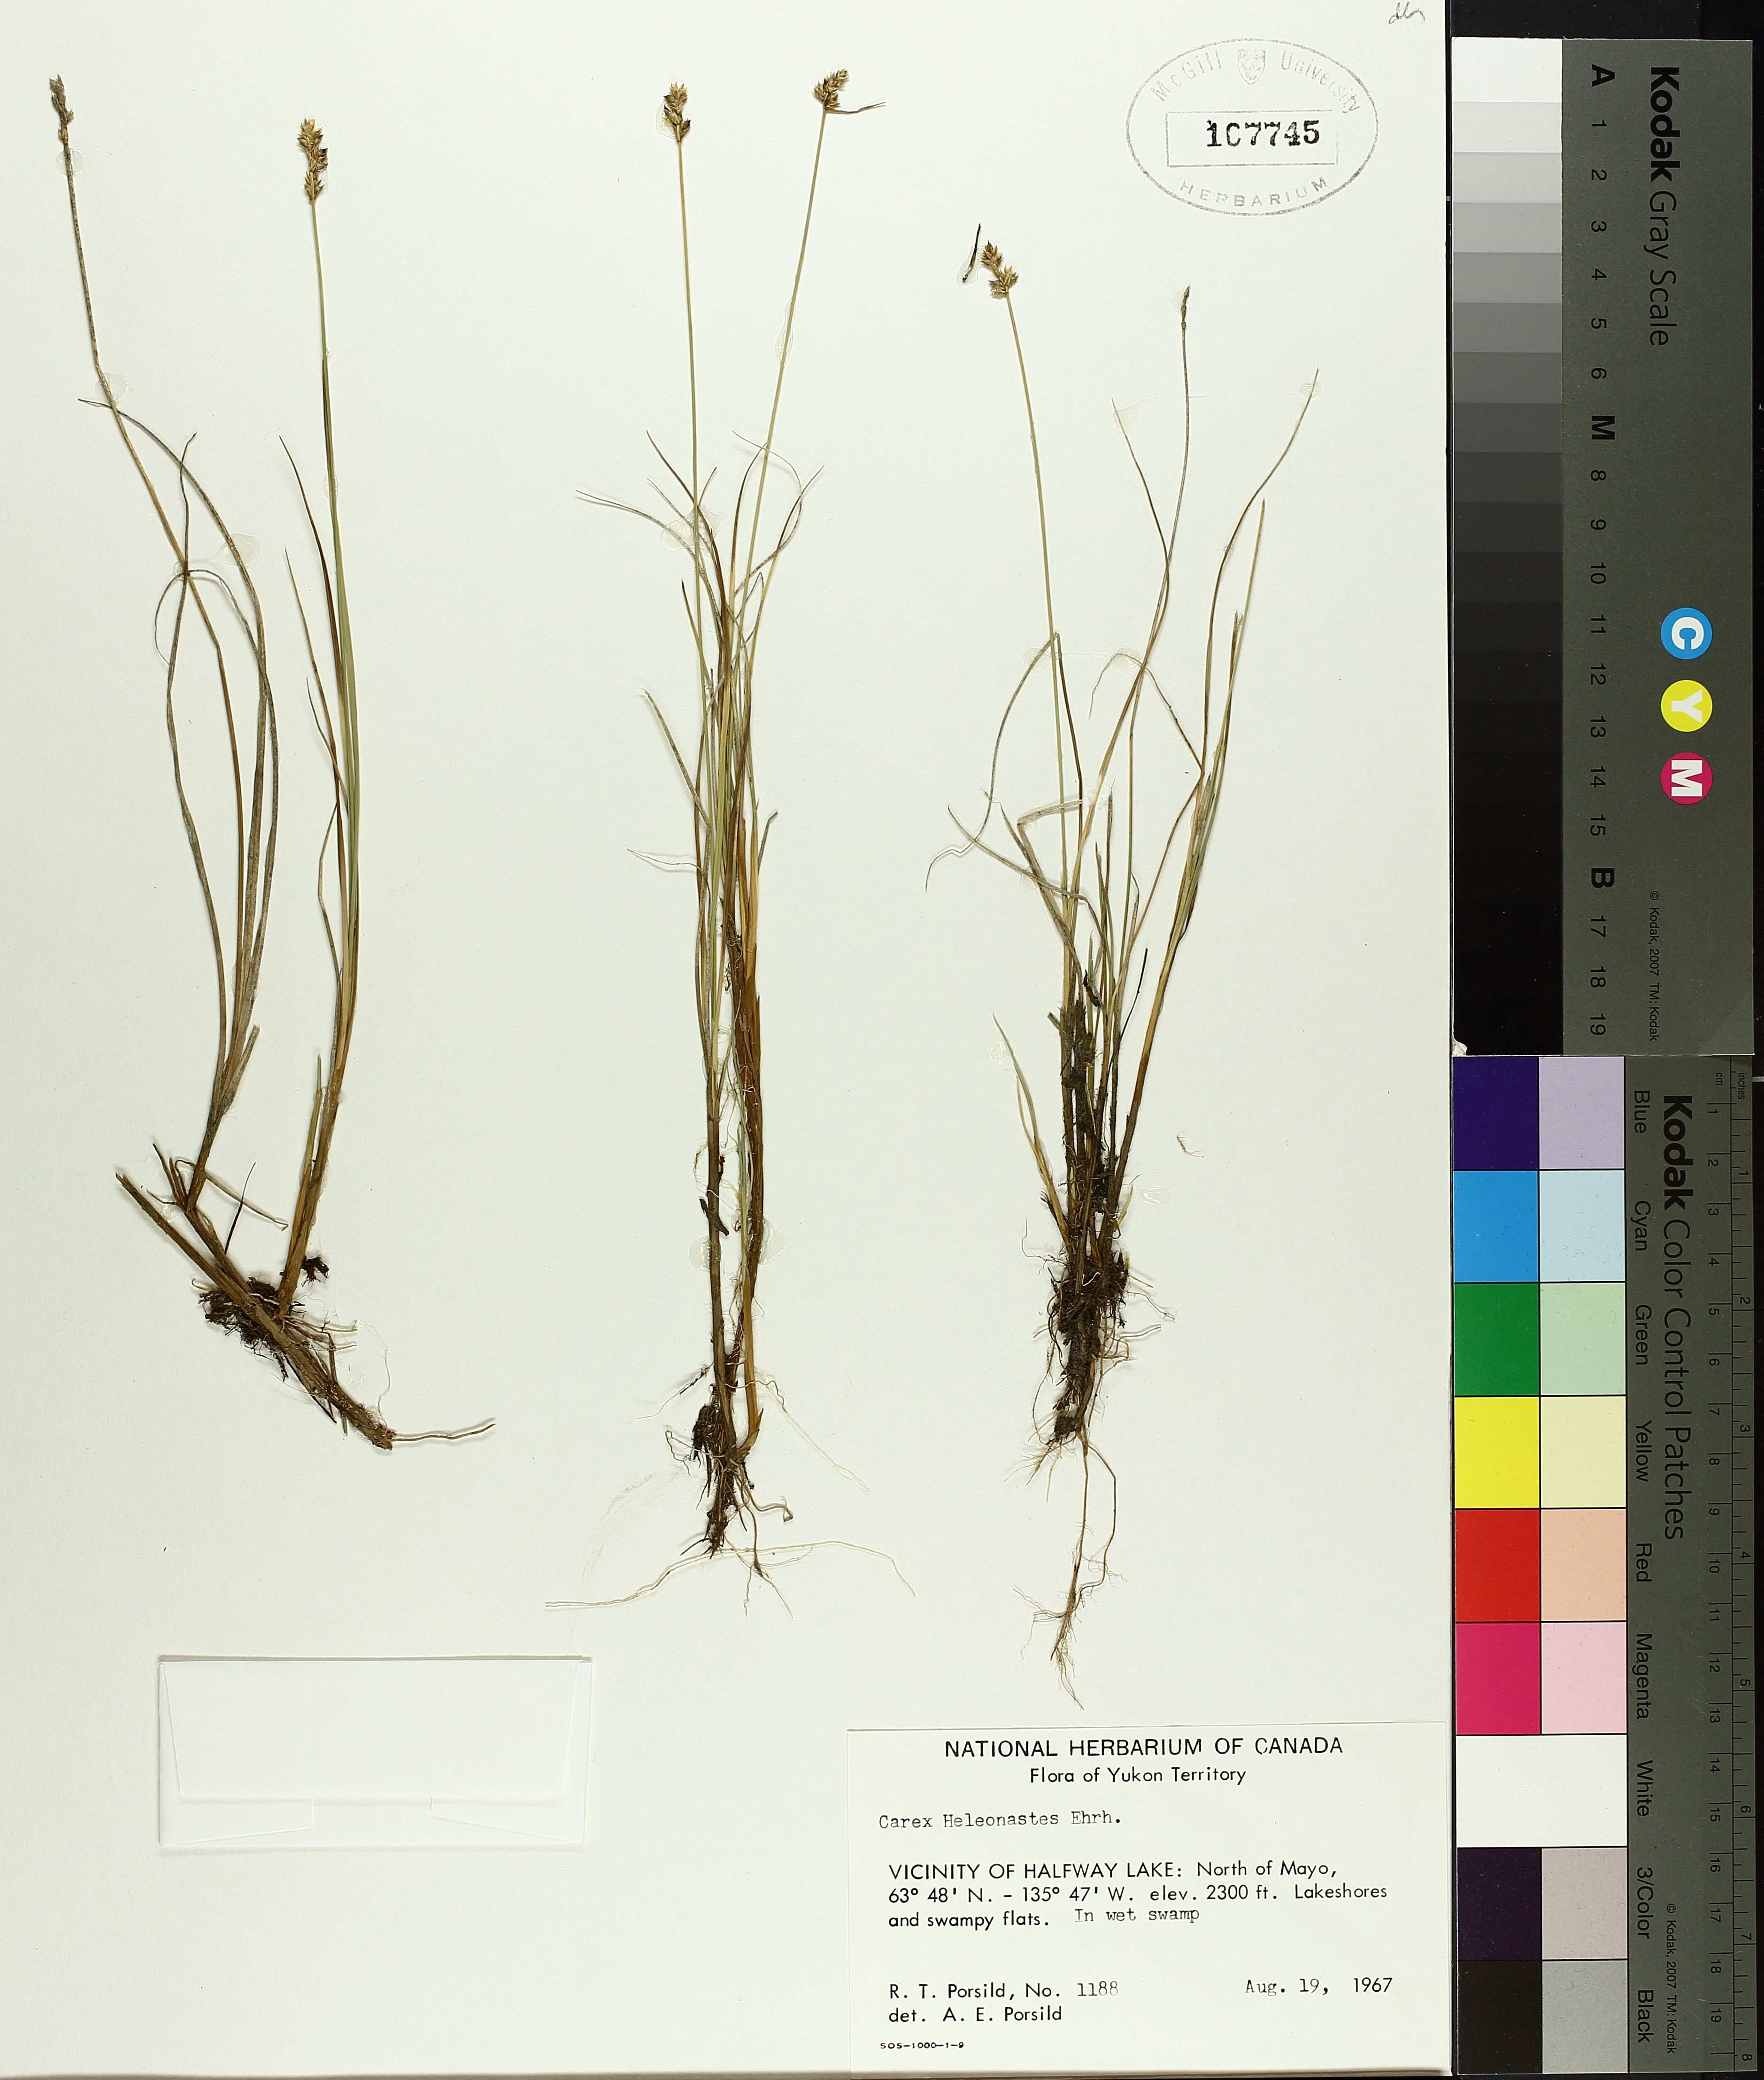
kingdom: Plantae
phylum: Tracheophyta
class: Liliopsida
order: Poales
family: Cyperaceae
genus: Carex
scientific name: Carex heleonastes
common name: Hudson bay sedge
